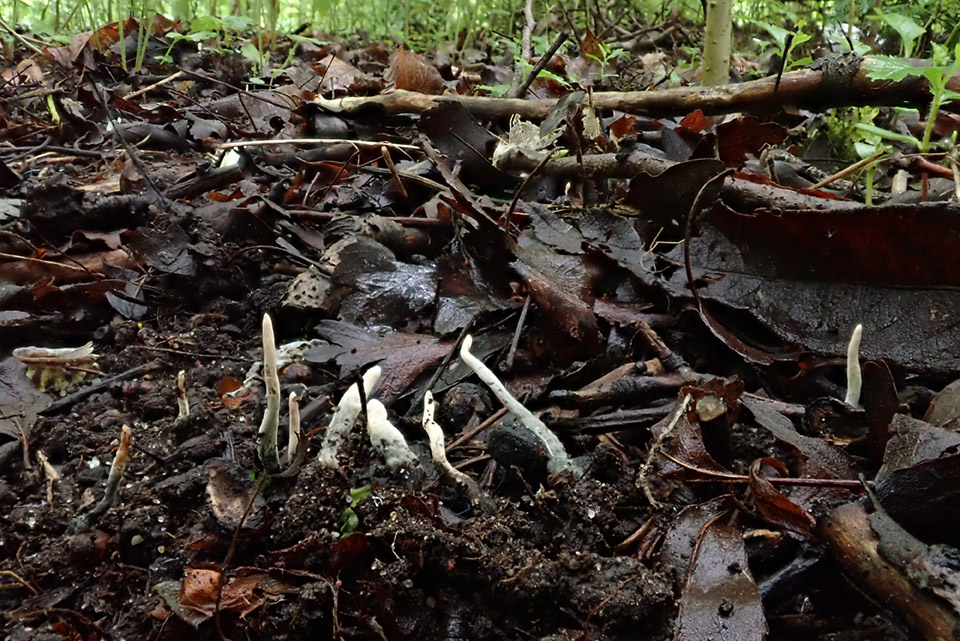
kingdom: Fungi
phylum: Ascomycota
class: Sordariomycetes
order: Xylariales
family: Xylariaceae
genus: Xylaria
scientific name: Xylaria oxyacanthae
